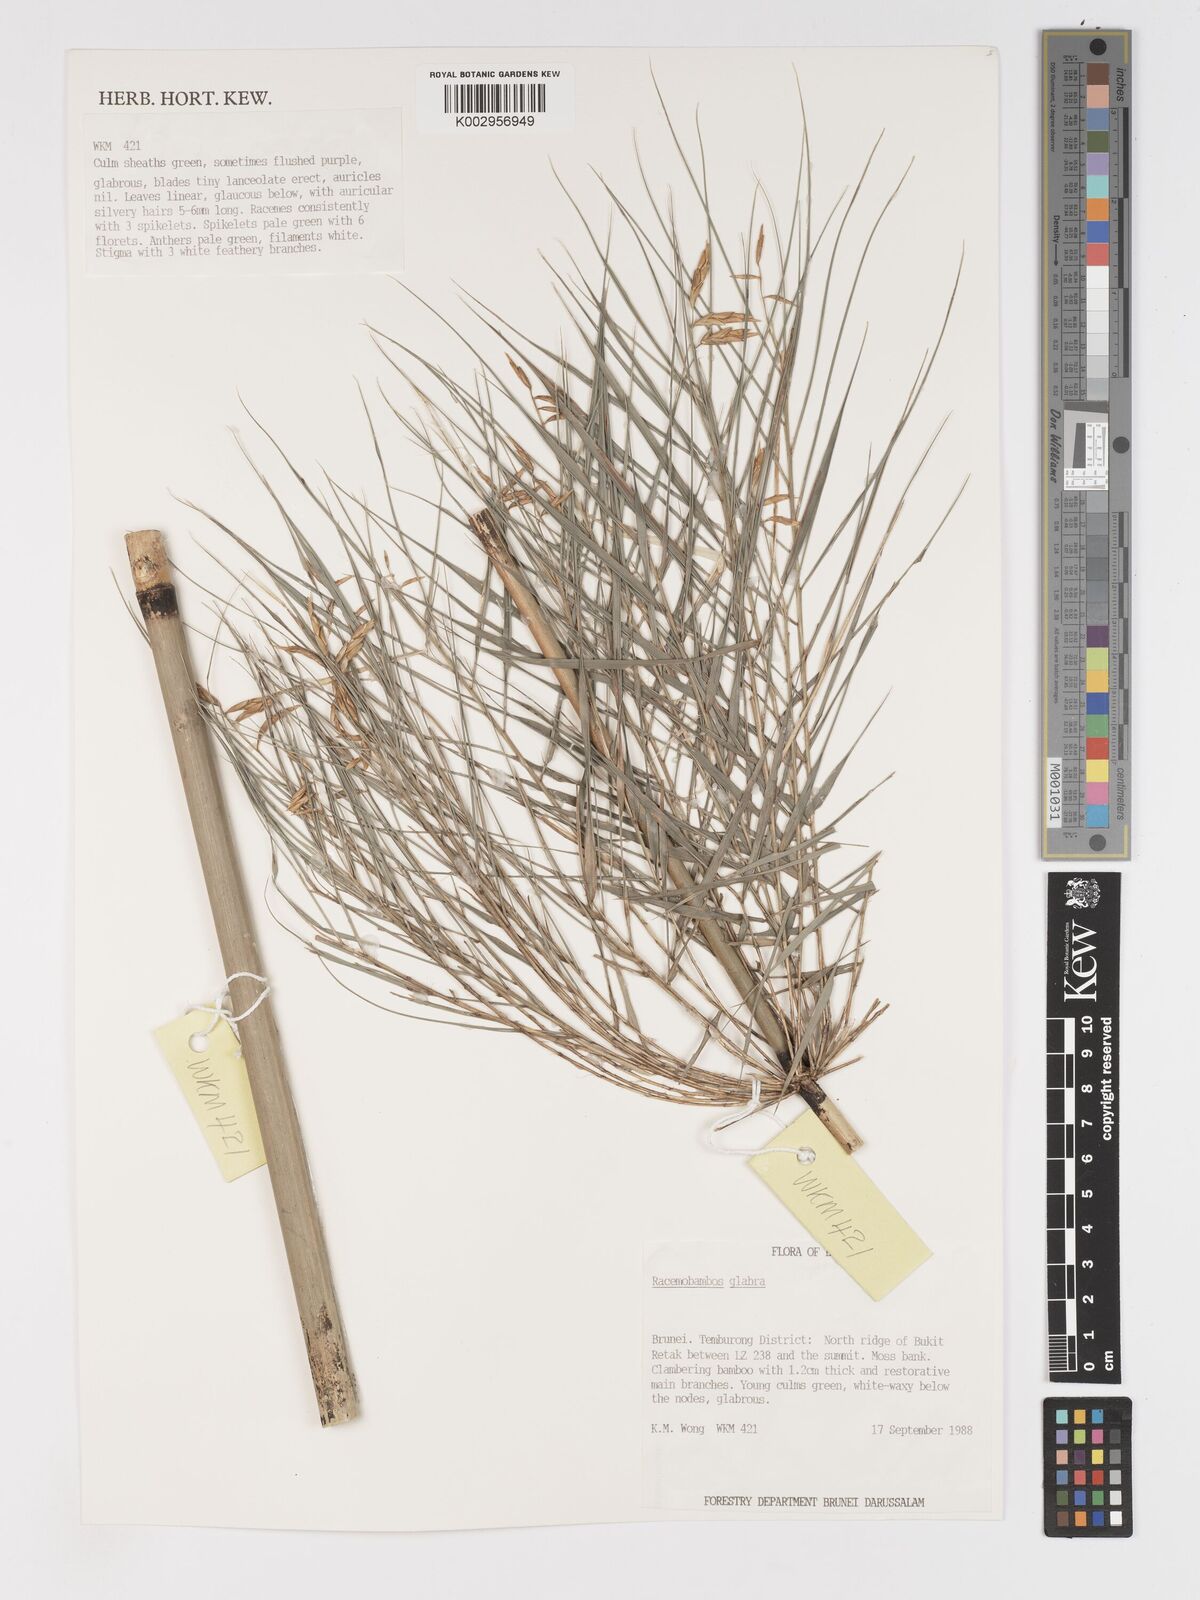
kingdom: Plantae
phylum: Tracheophyta
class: Liliopsida
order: Poales
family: Poaceae
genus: Racemobambos
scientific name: Racemobambos glabra
